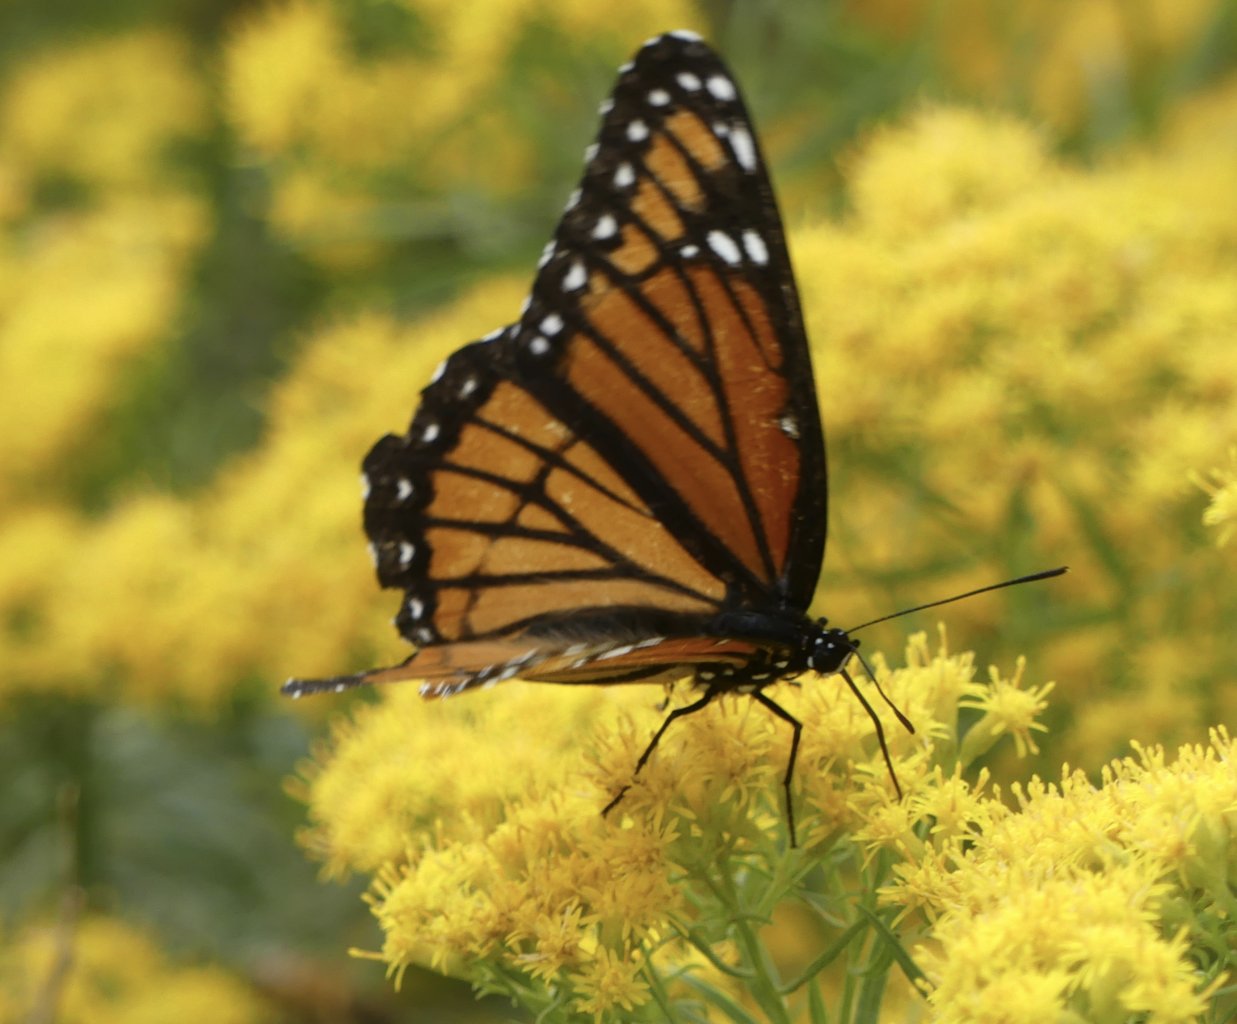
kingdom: Animalia
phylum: Arthropoda
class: Insecta
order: Lepidoptera
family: Nymphalidae
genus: Limenitis
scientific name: Limenitis archippus
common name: Viceroy
